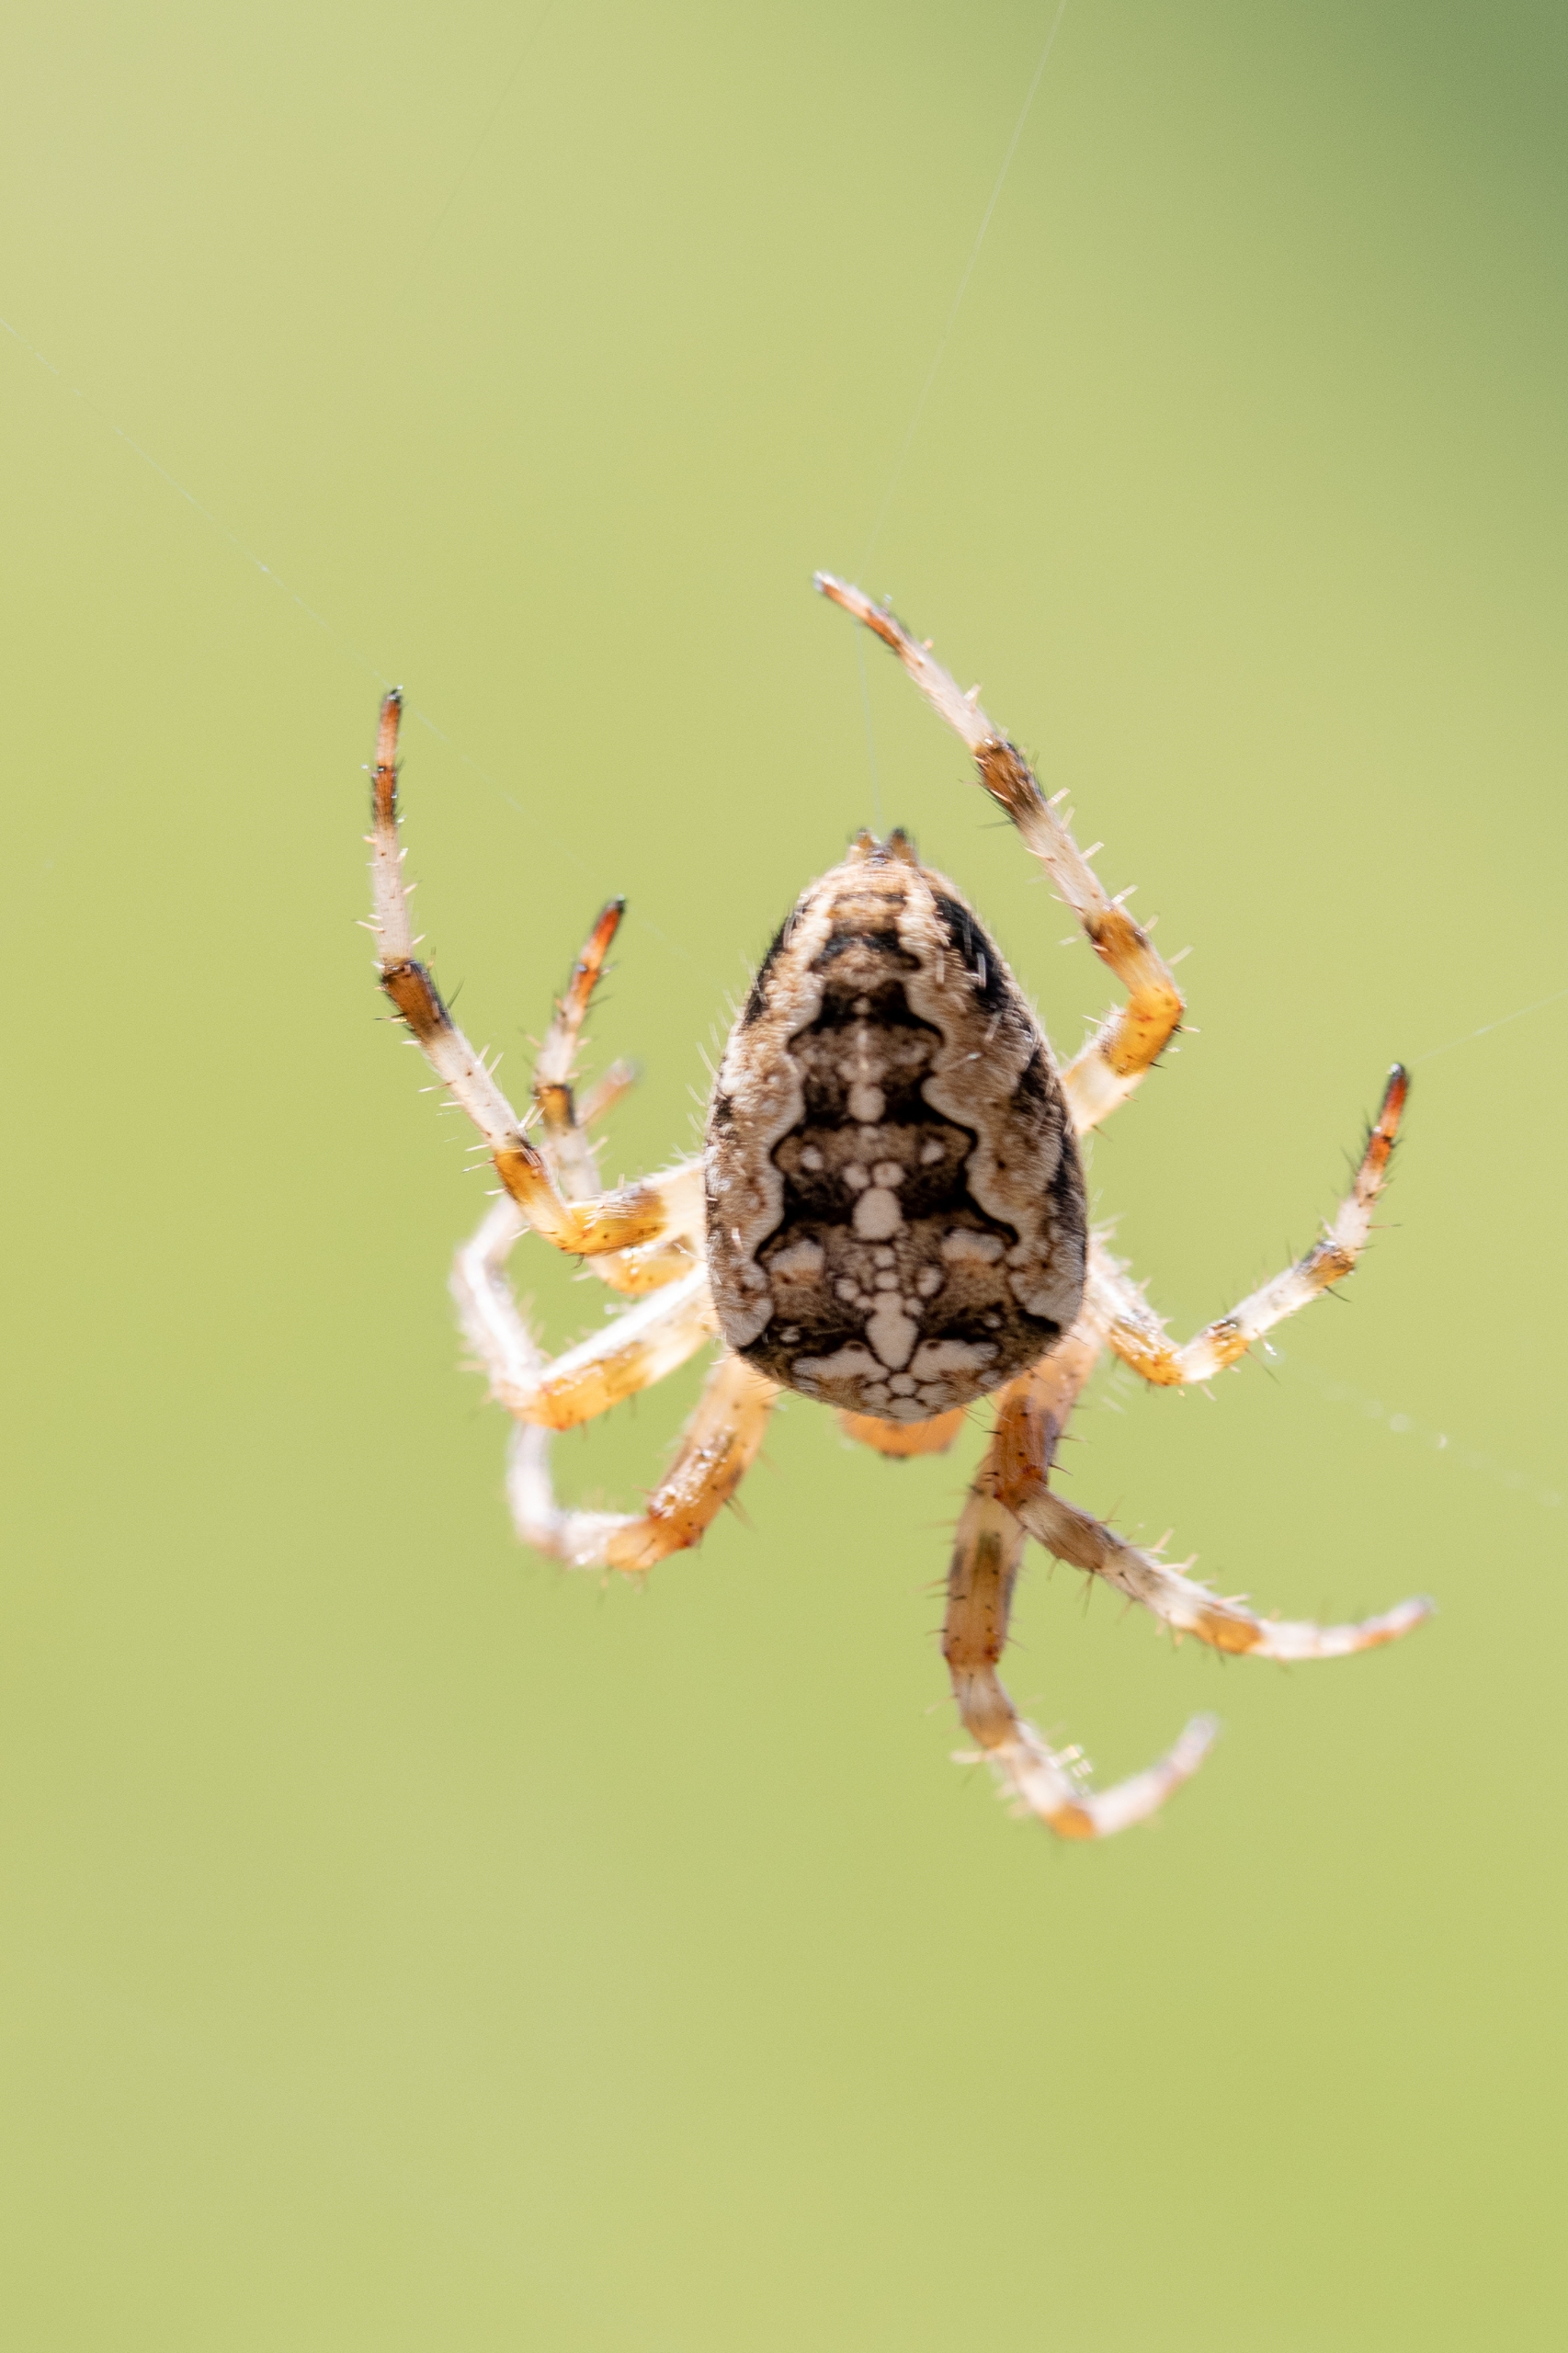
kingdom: Animalia
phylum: Arthropoda
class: Arachnida
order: Araneae
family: Araneidae
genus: Araneus
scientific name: Araneus diadematus
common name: Korsedderkop
